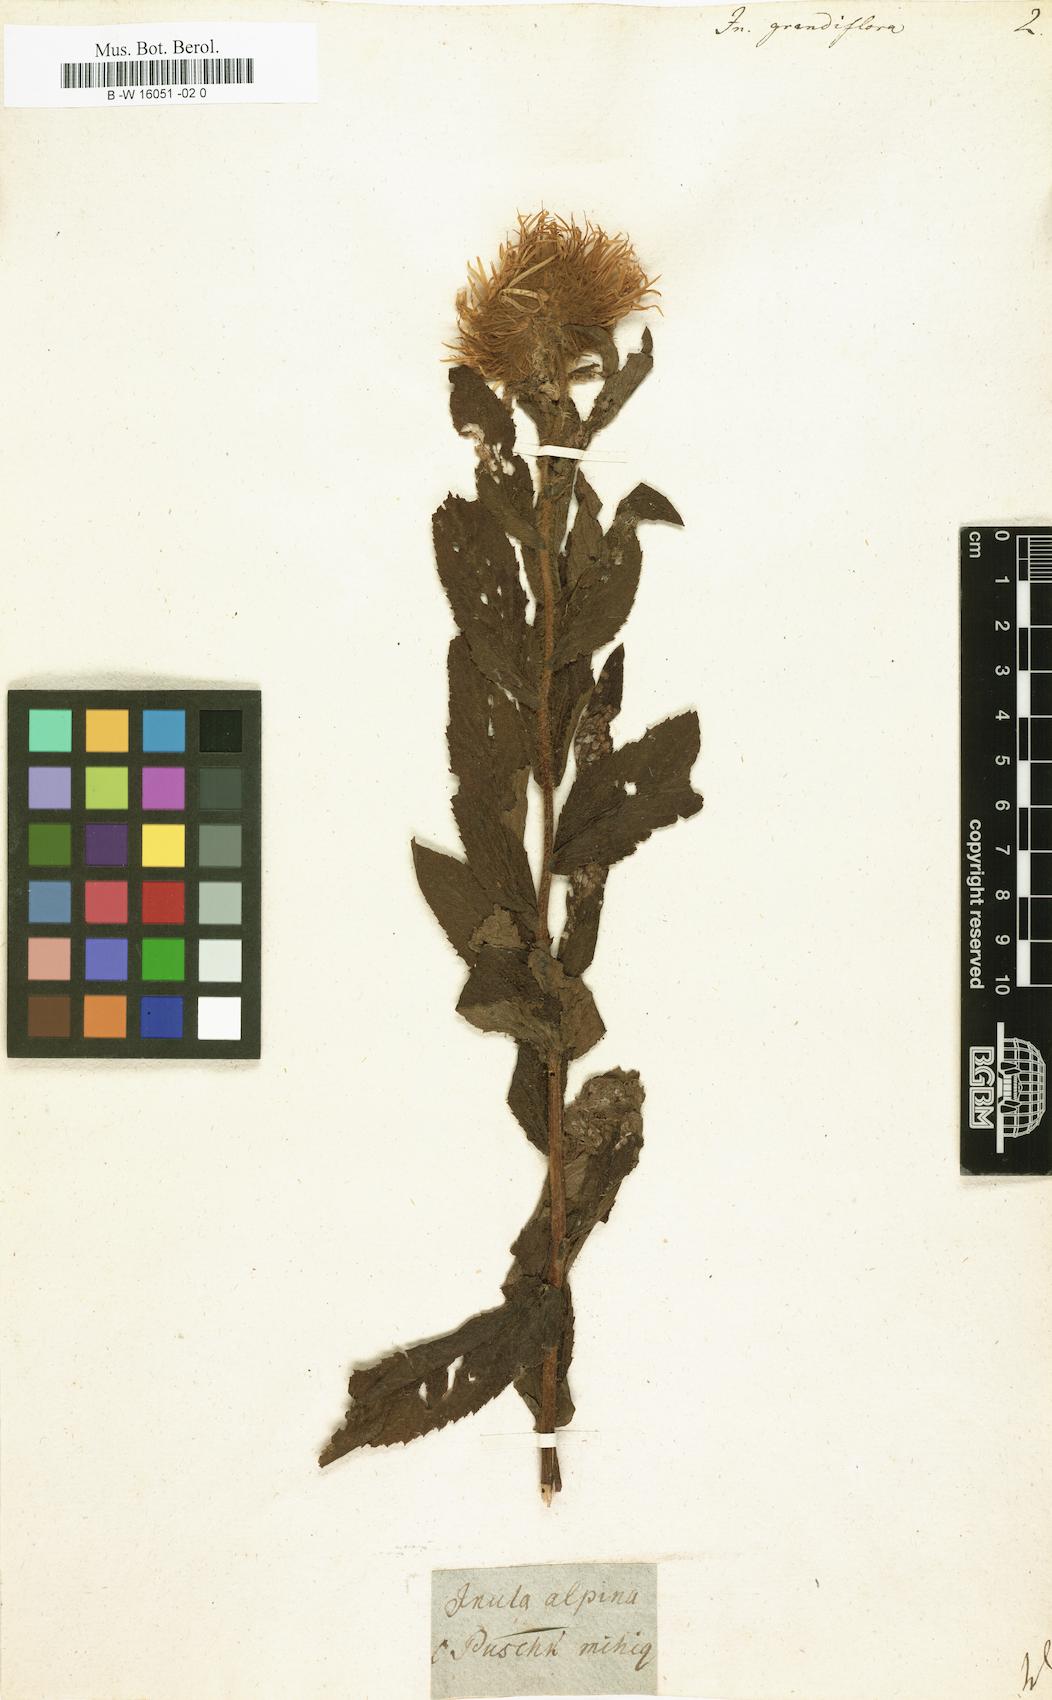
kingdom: Plantae
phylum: Tracheophyta
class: Magnoliopsida
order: Asterales
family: Asteraceae
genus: Inula
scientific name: Inula grandiflora
